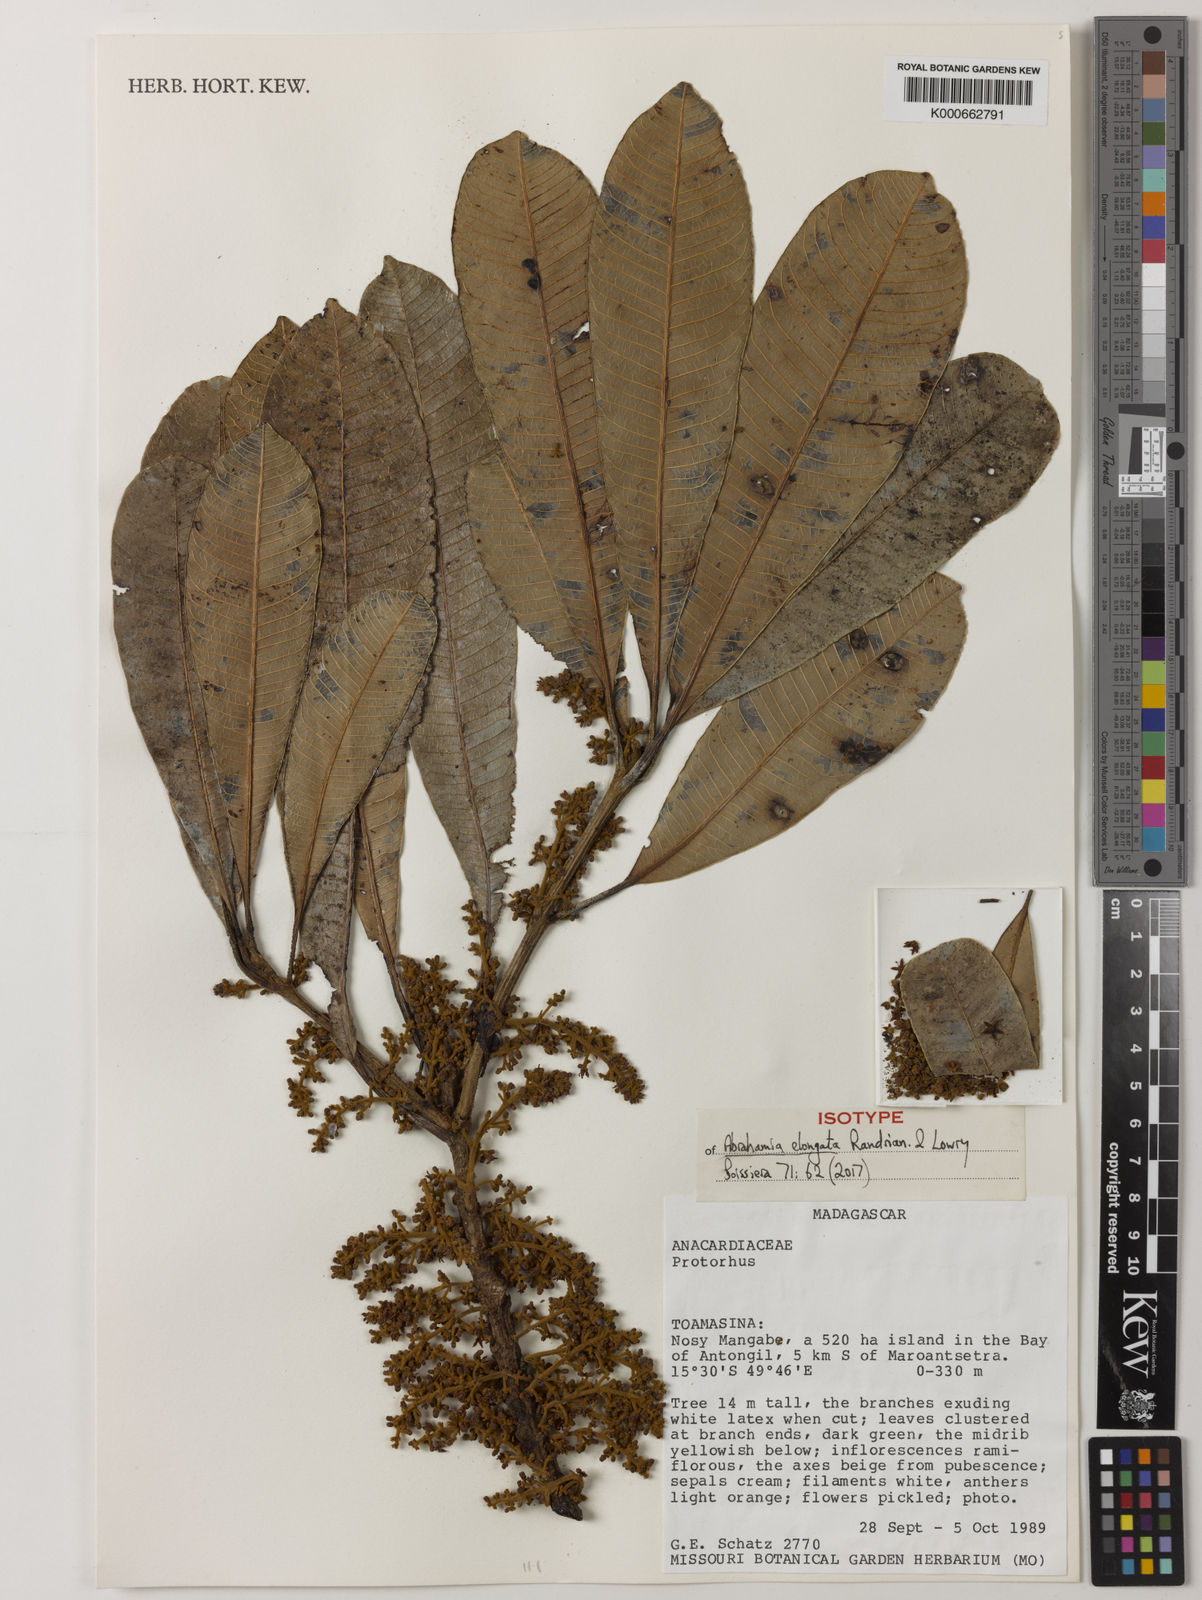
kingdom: Plantae
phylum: Tracheophyta
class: Magnoliopsida
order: Sapindales
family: Anacardiaceae
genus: Abrahamia
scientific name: Abrahamia elongata
